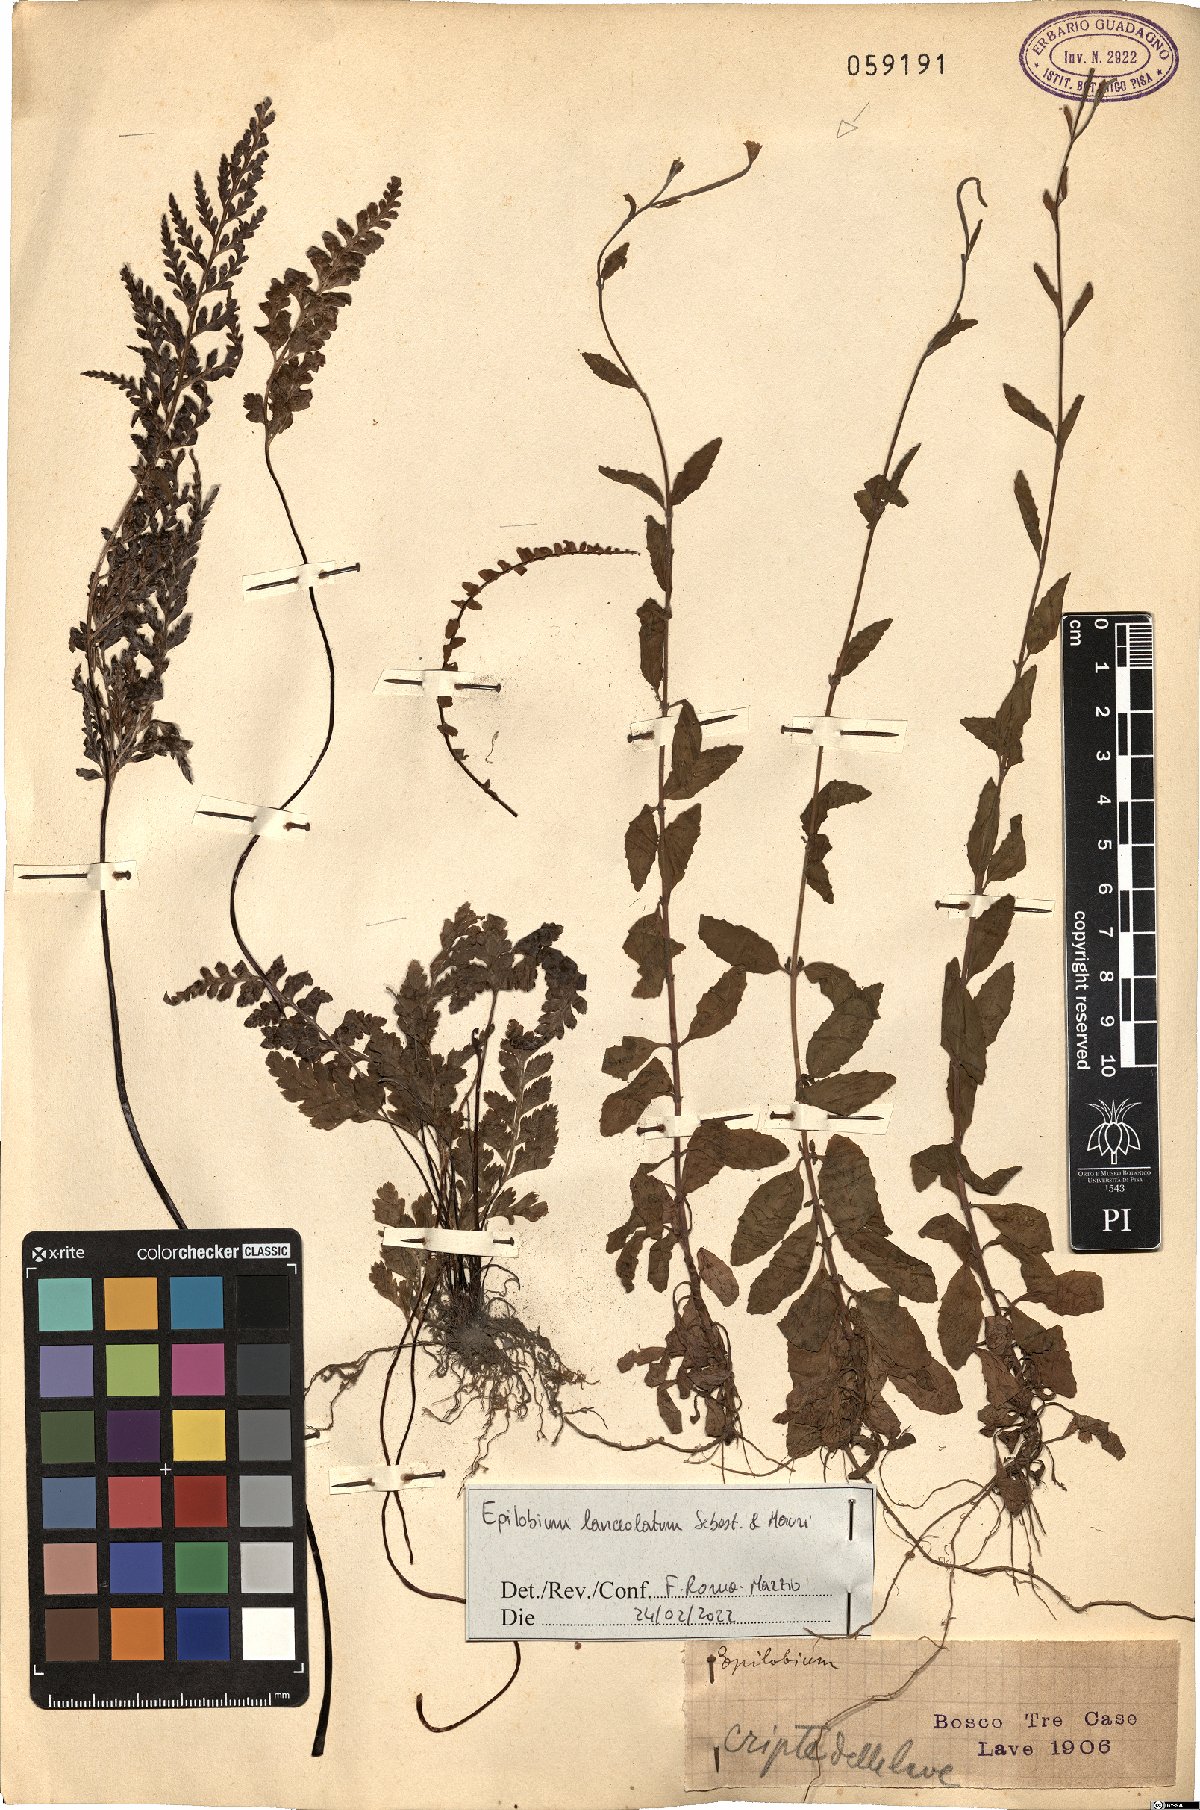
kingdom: Plantae
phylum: Tracheophyta
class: Magnoliopsida
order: Myrtales
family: Onagraceae
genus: Epilobium
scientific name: Epilobium lanceolatum
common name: Spear-leaved willowherb
